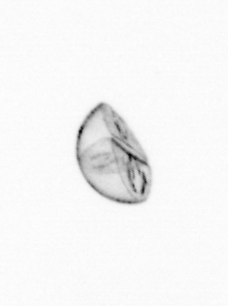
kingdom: Chromista
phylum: Ochrophyta
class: Bacillariophyceae
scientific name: Bacillariophyceae
